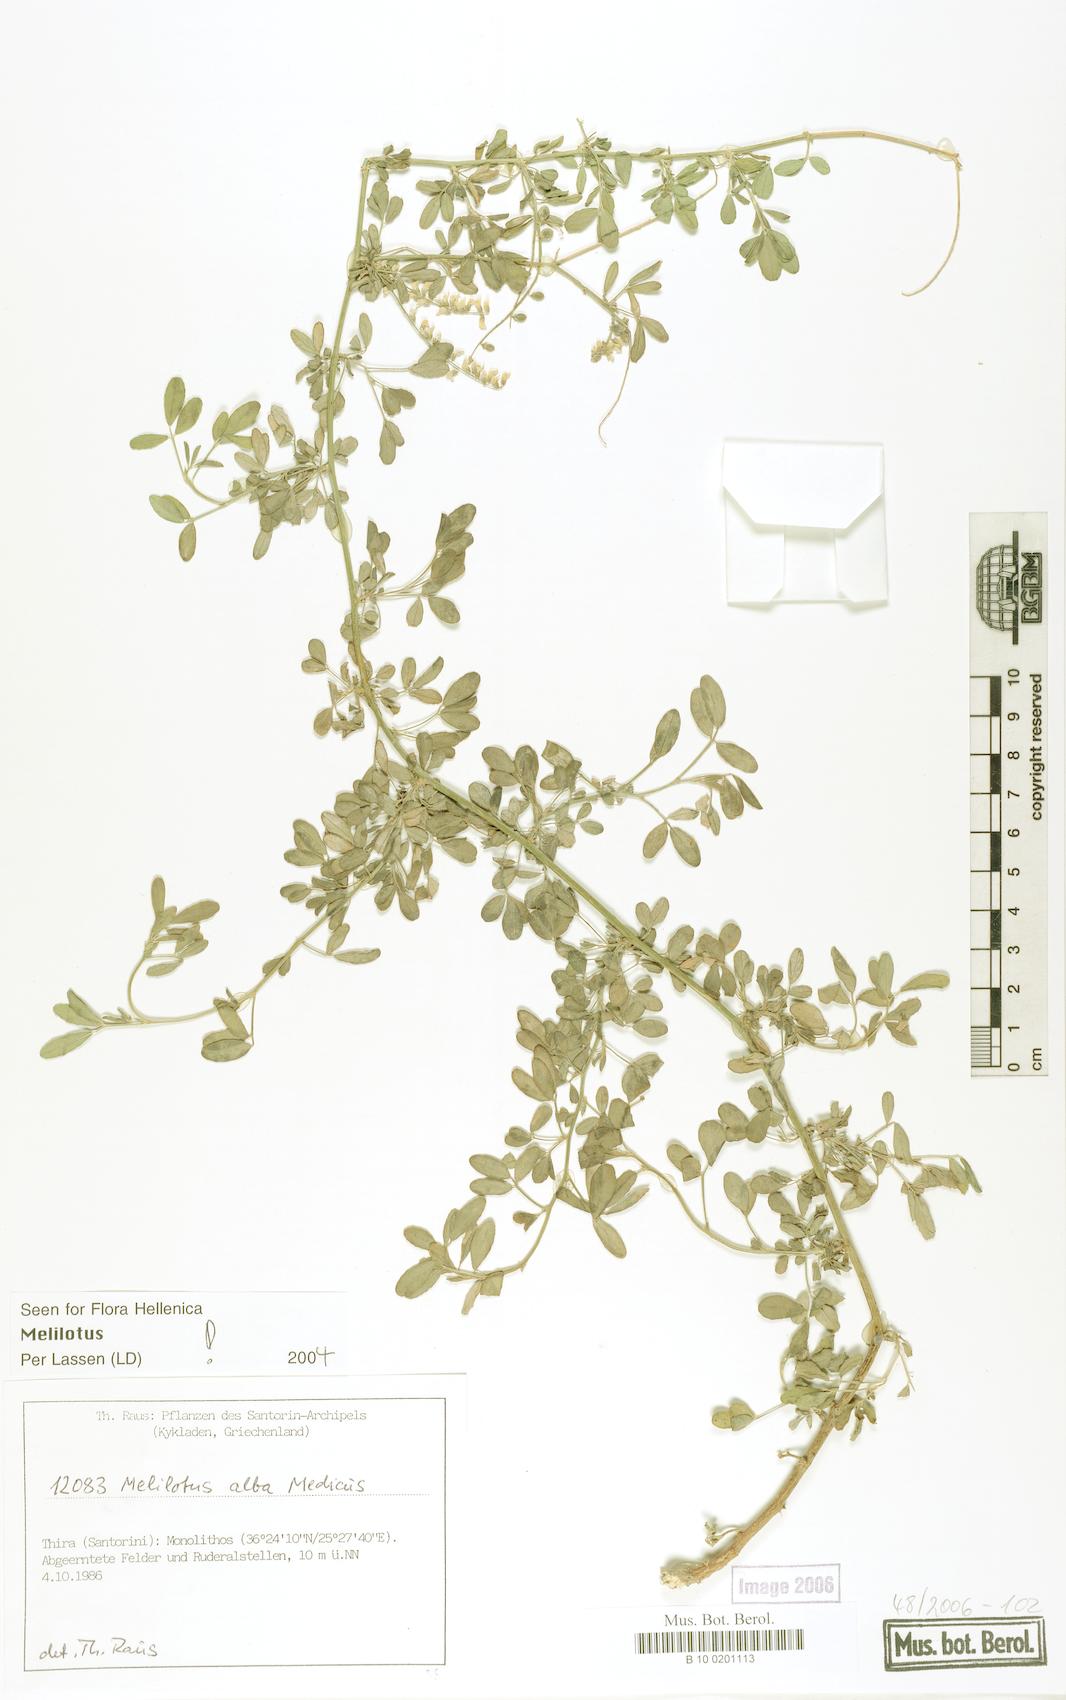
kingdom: Plantae
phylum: Tracheophyta
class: Magnoliopsida
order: Fabales
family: Fabaceae
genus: Melilotus
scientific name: Melilotus albus
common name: White melilot
